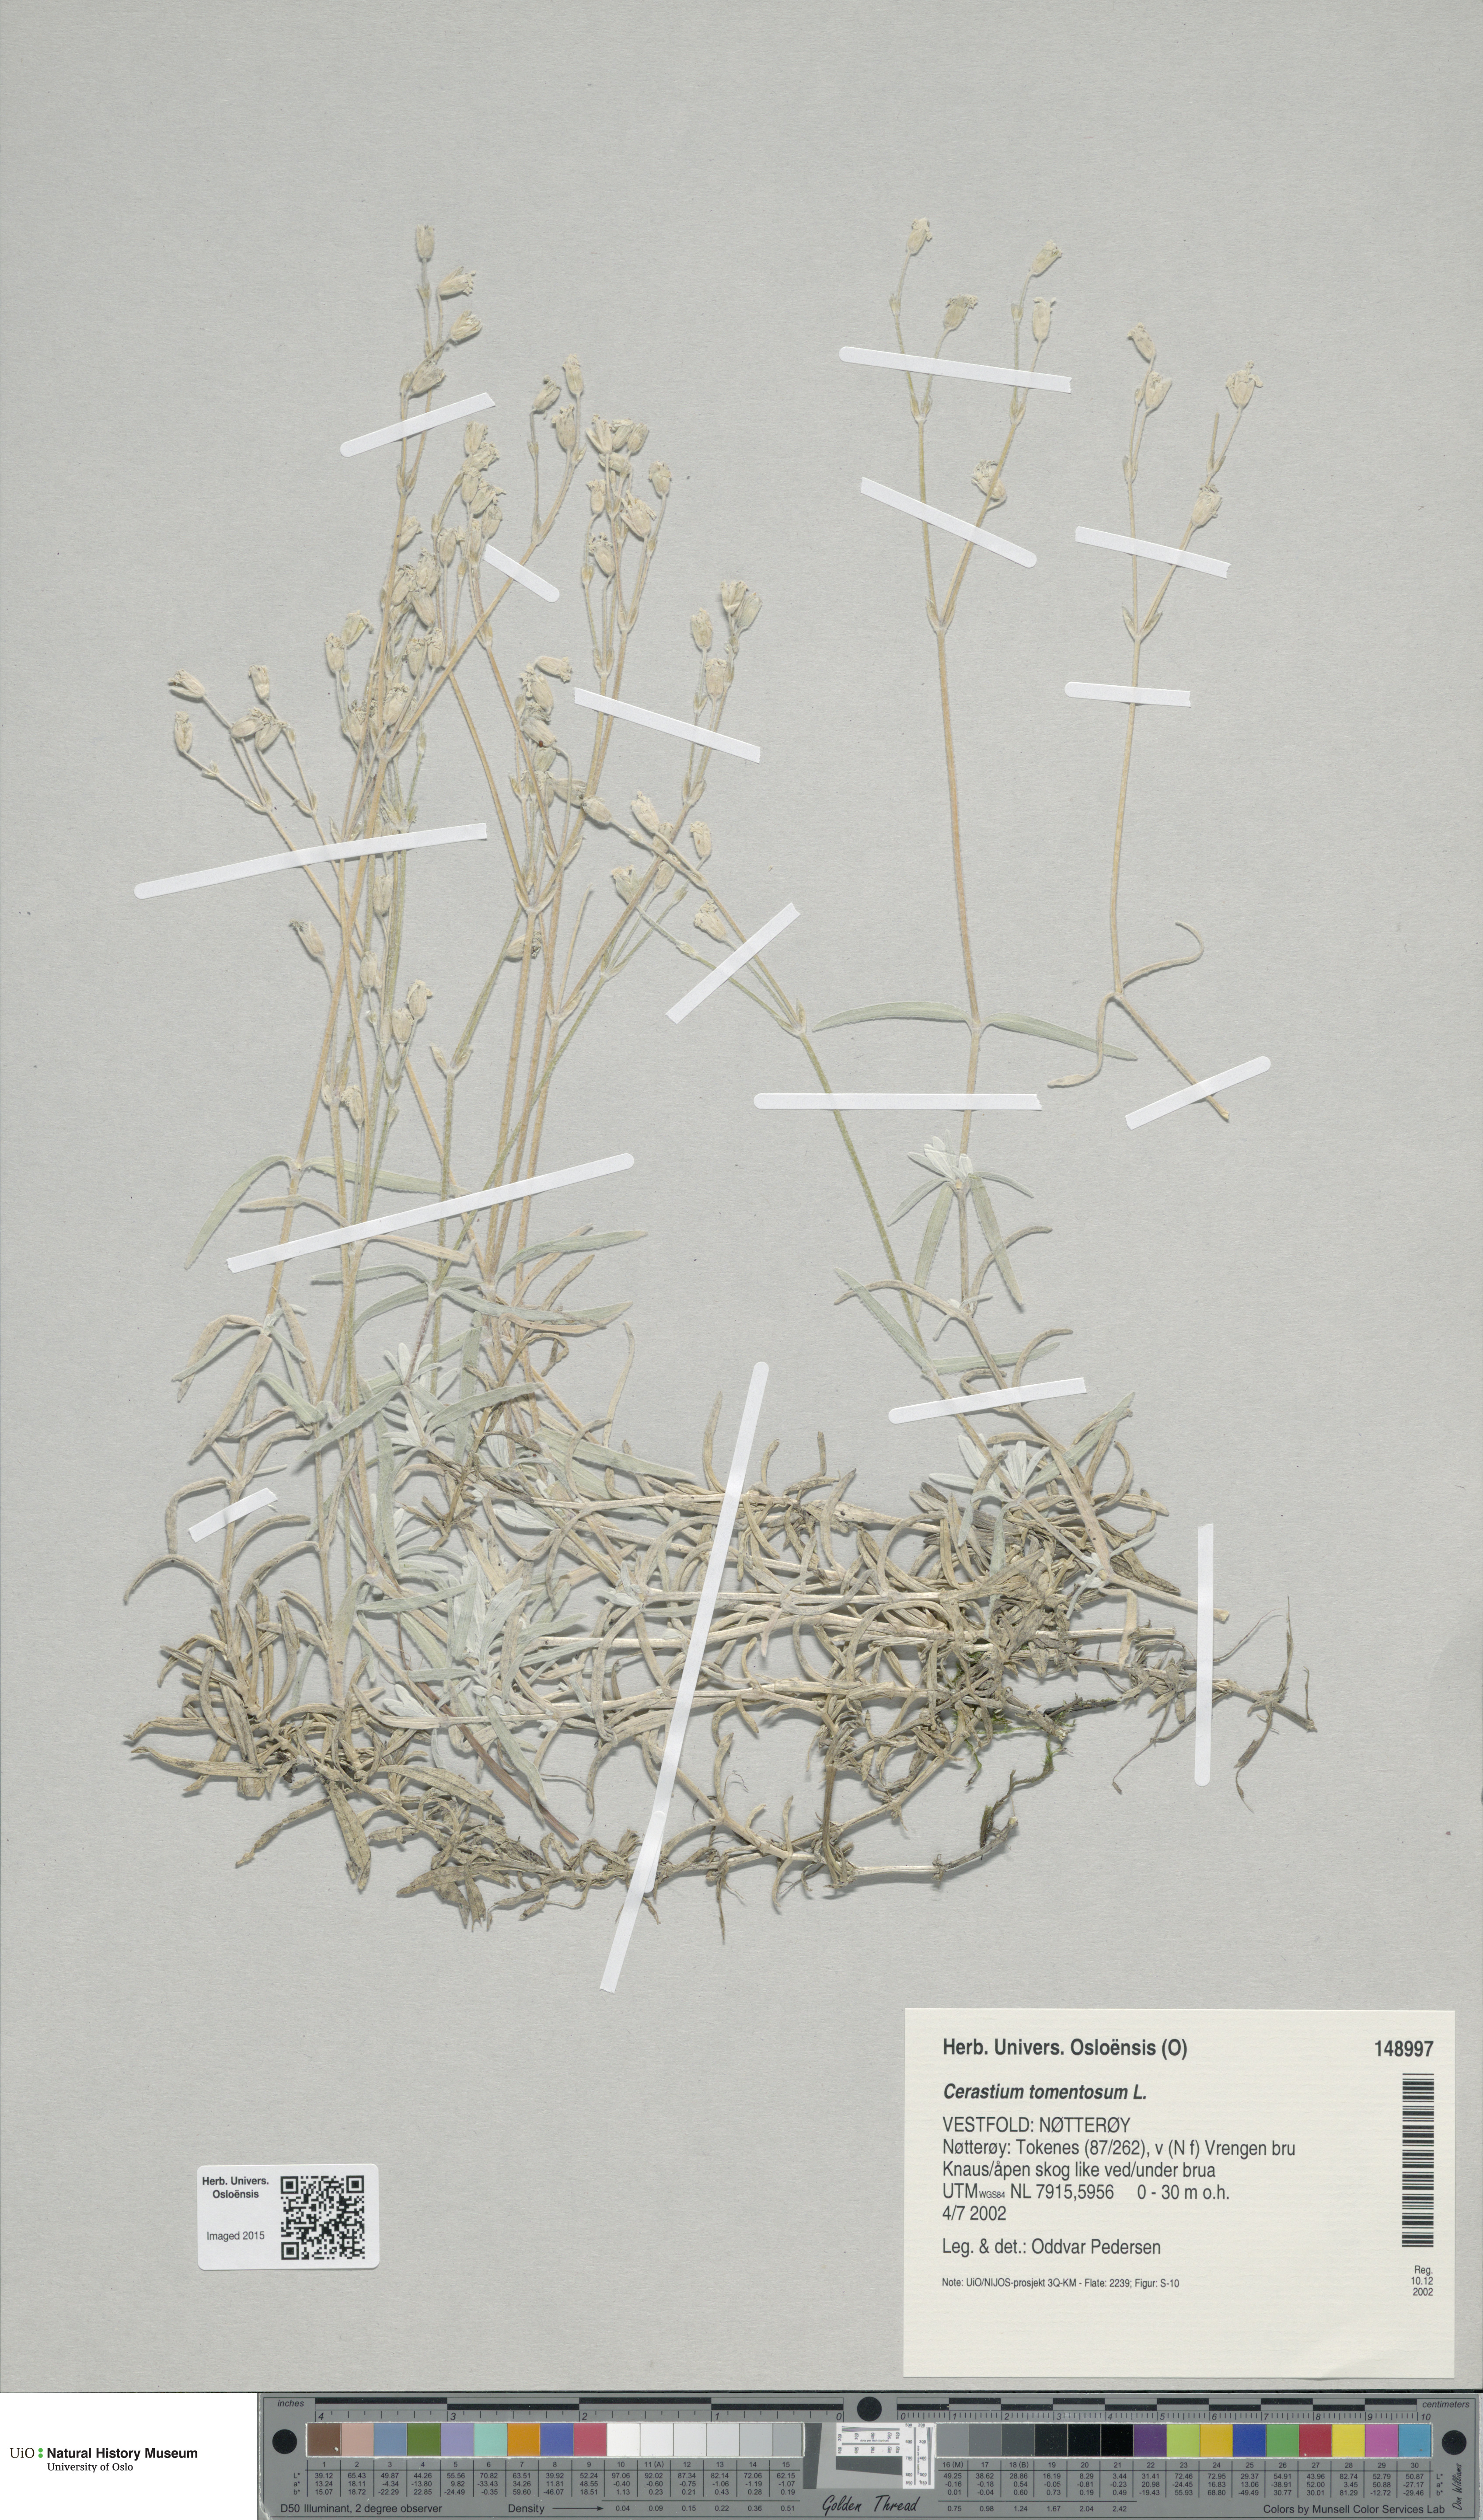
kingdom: Plantae
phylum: Tracheophyta
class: Magnoliopsida
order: Caryophyllales
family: Caryophyllaceae
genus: Cerastium
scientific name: Cerastium tomentosum
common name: Snow-in-summer
